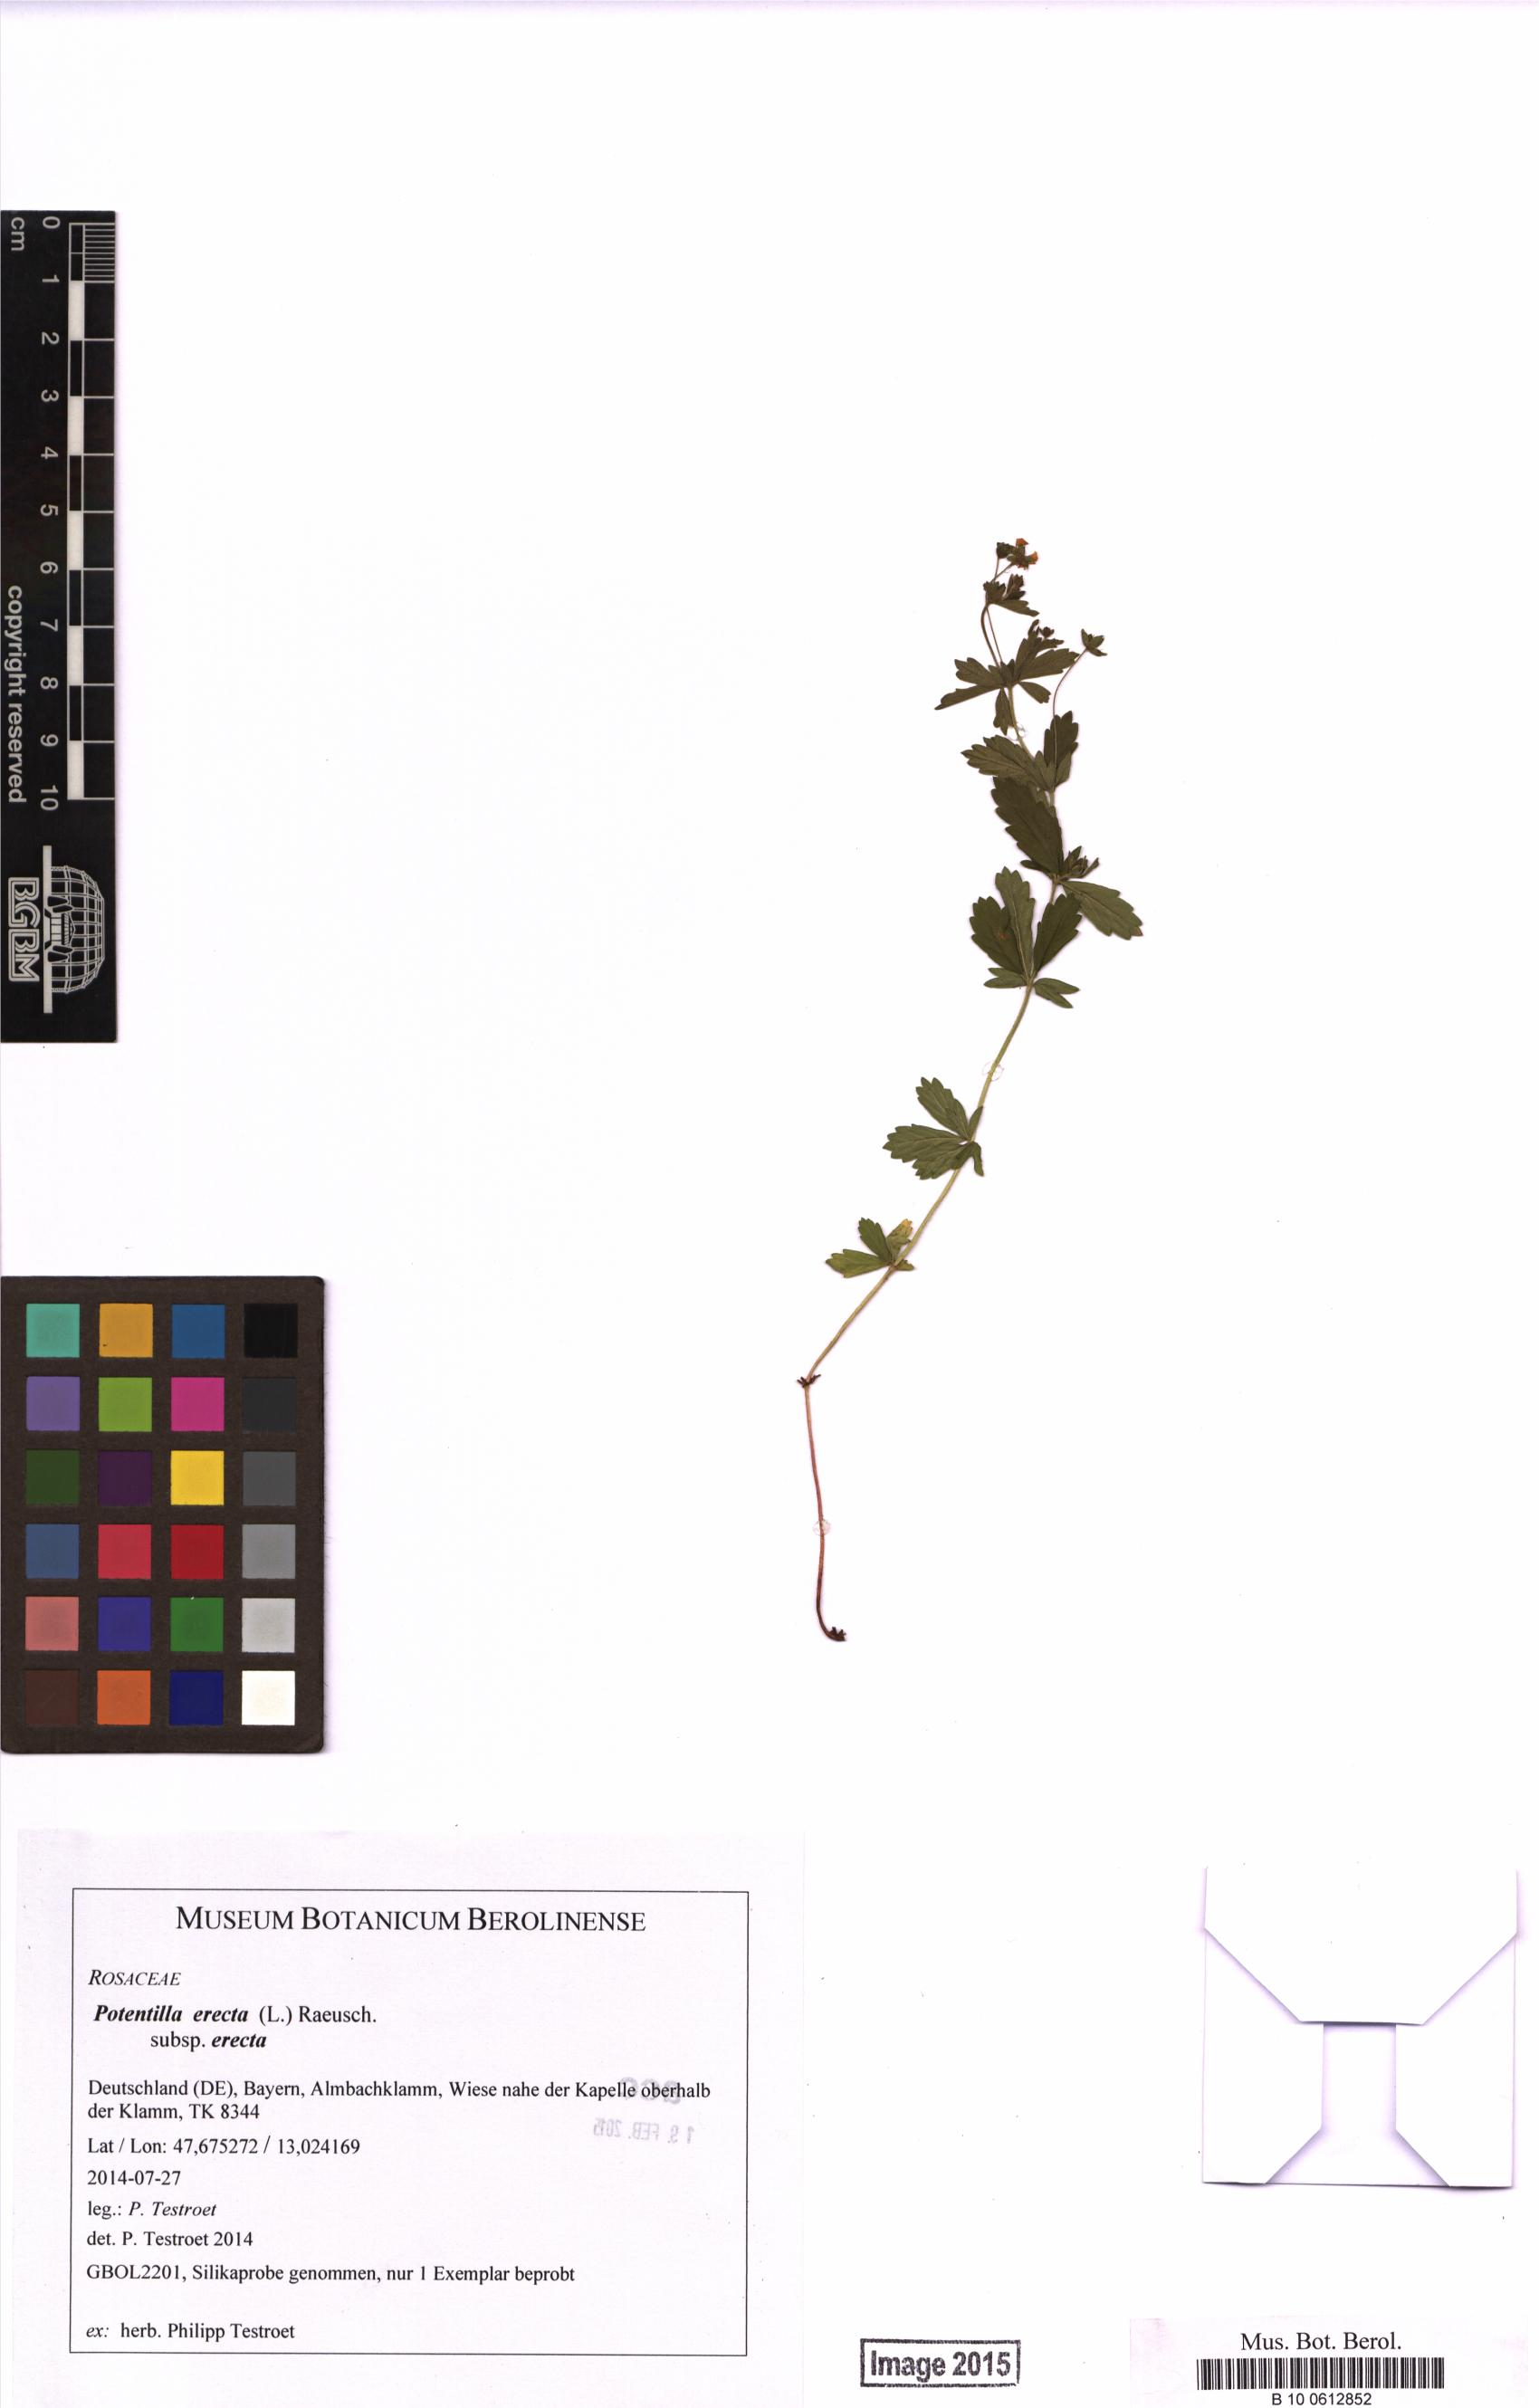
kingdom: Plantae
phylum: Tracheophyta
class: Magnoliopsida
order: Rosales
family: Rosaceae
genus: Potentilla
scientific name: Potentilla erecta
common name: Tormentil
